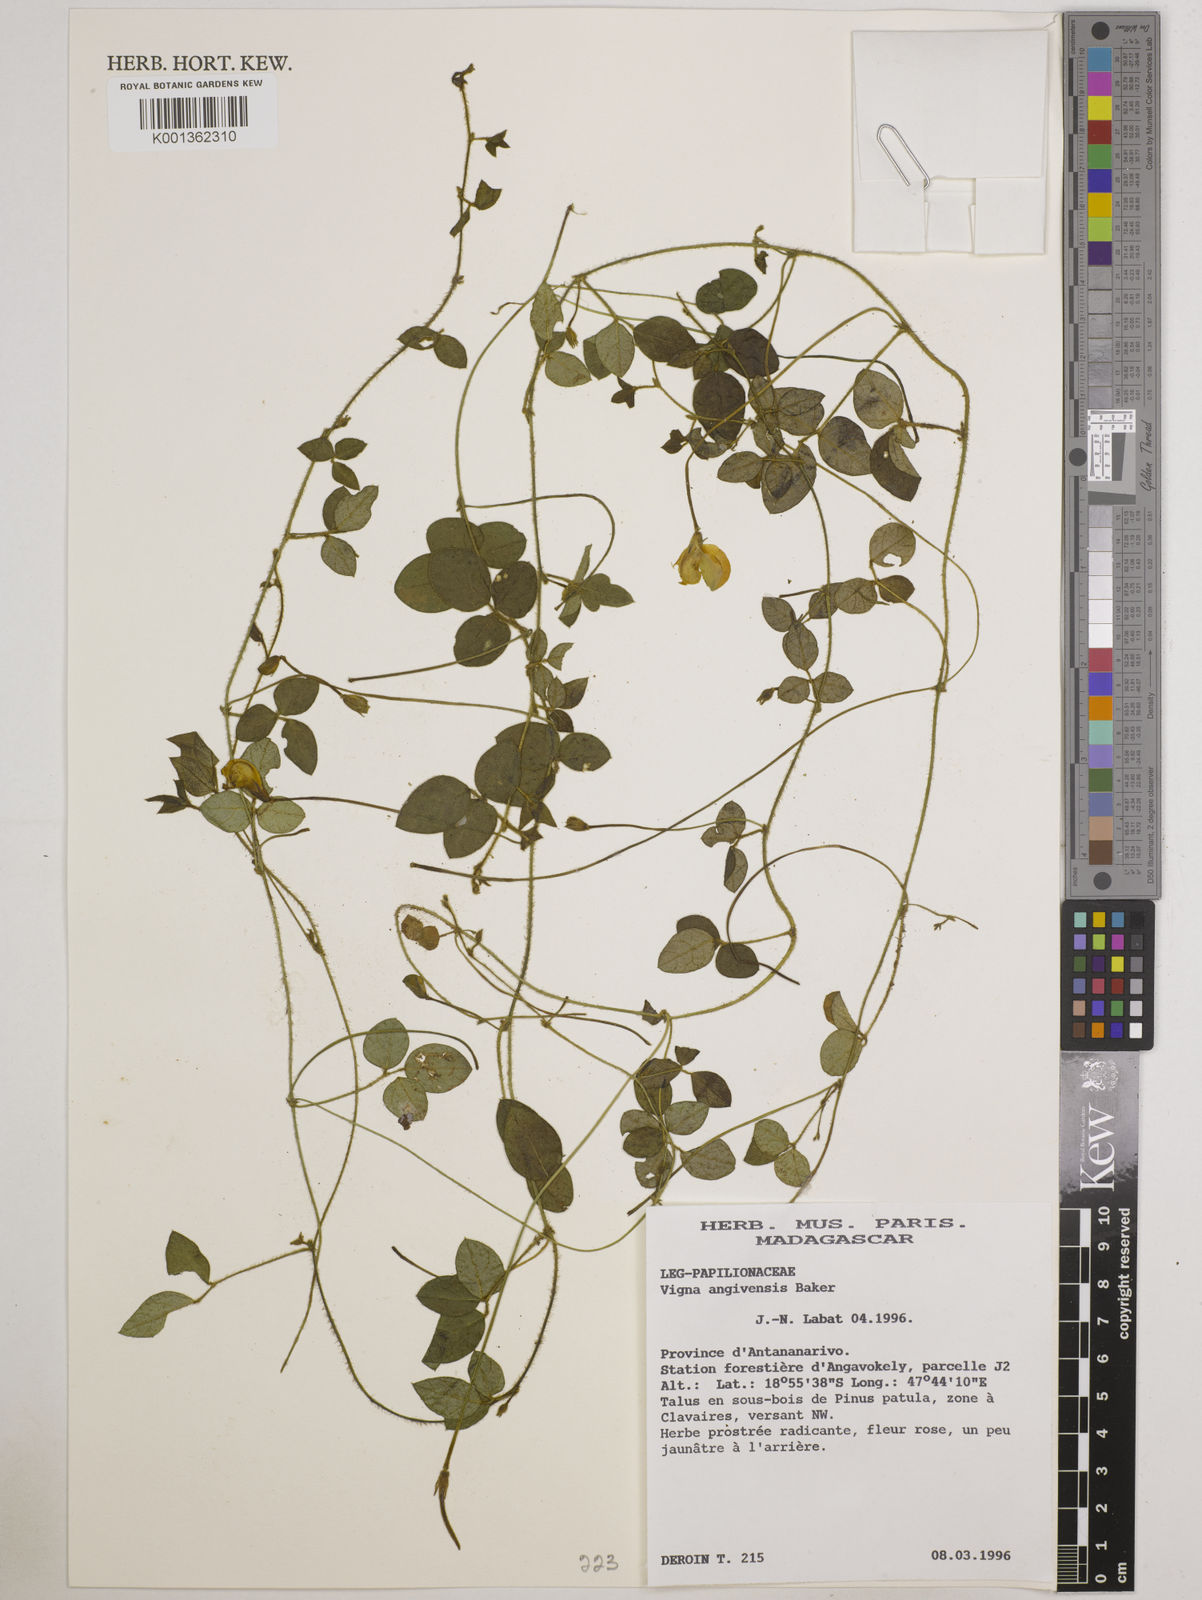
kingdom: Plantae
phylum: Tracheophyta
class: Magnoliopsida
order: Fabales
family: Fabaceae
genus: Vigna
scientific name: Vigna angivensis
